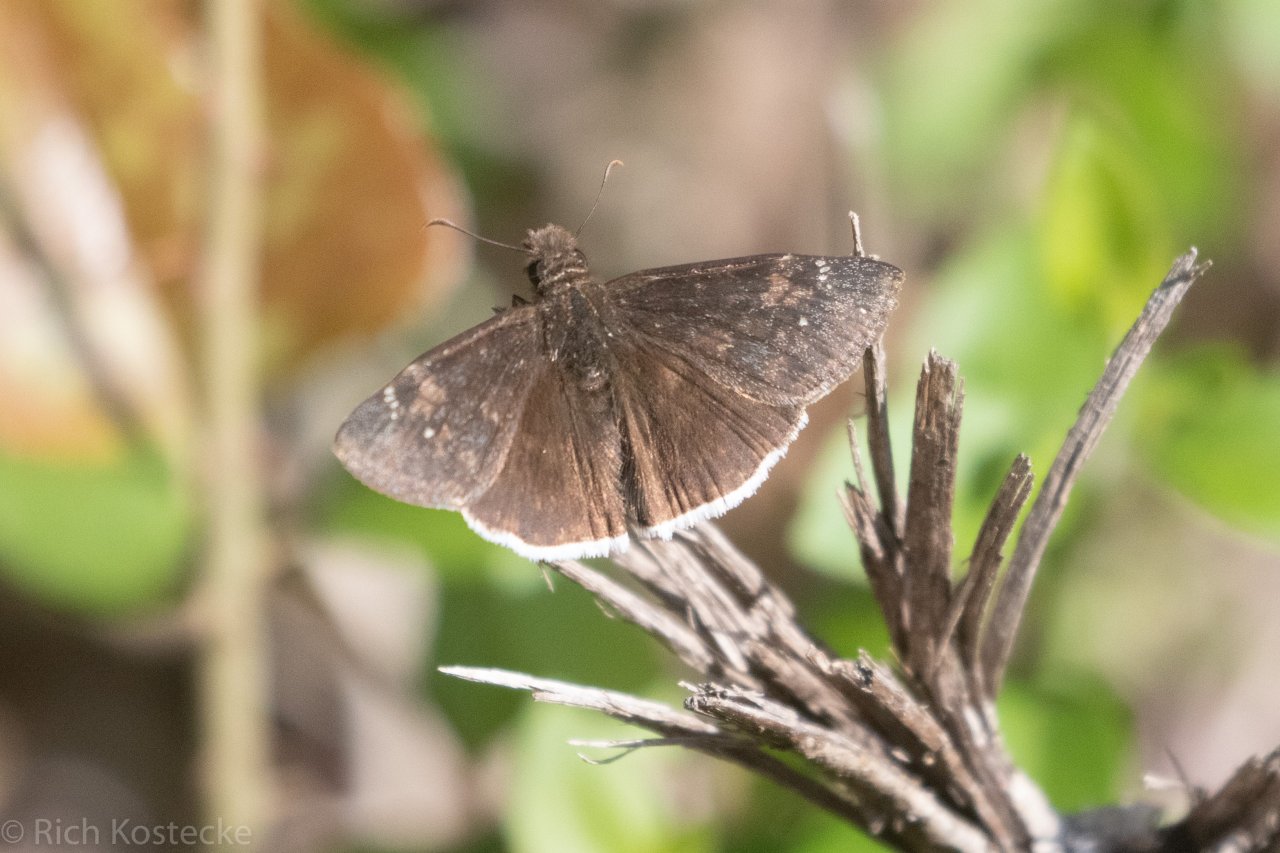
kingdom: Animalia
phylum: Arthropoda
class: Insecta
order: Lepidoptera
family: Hesperiidae
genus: Erynnis
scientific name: Erynnis funeralis
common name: Funereal Duskywing
